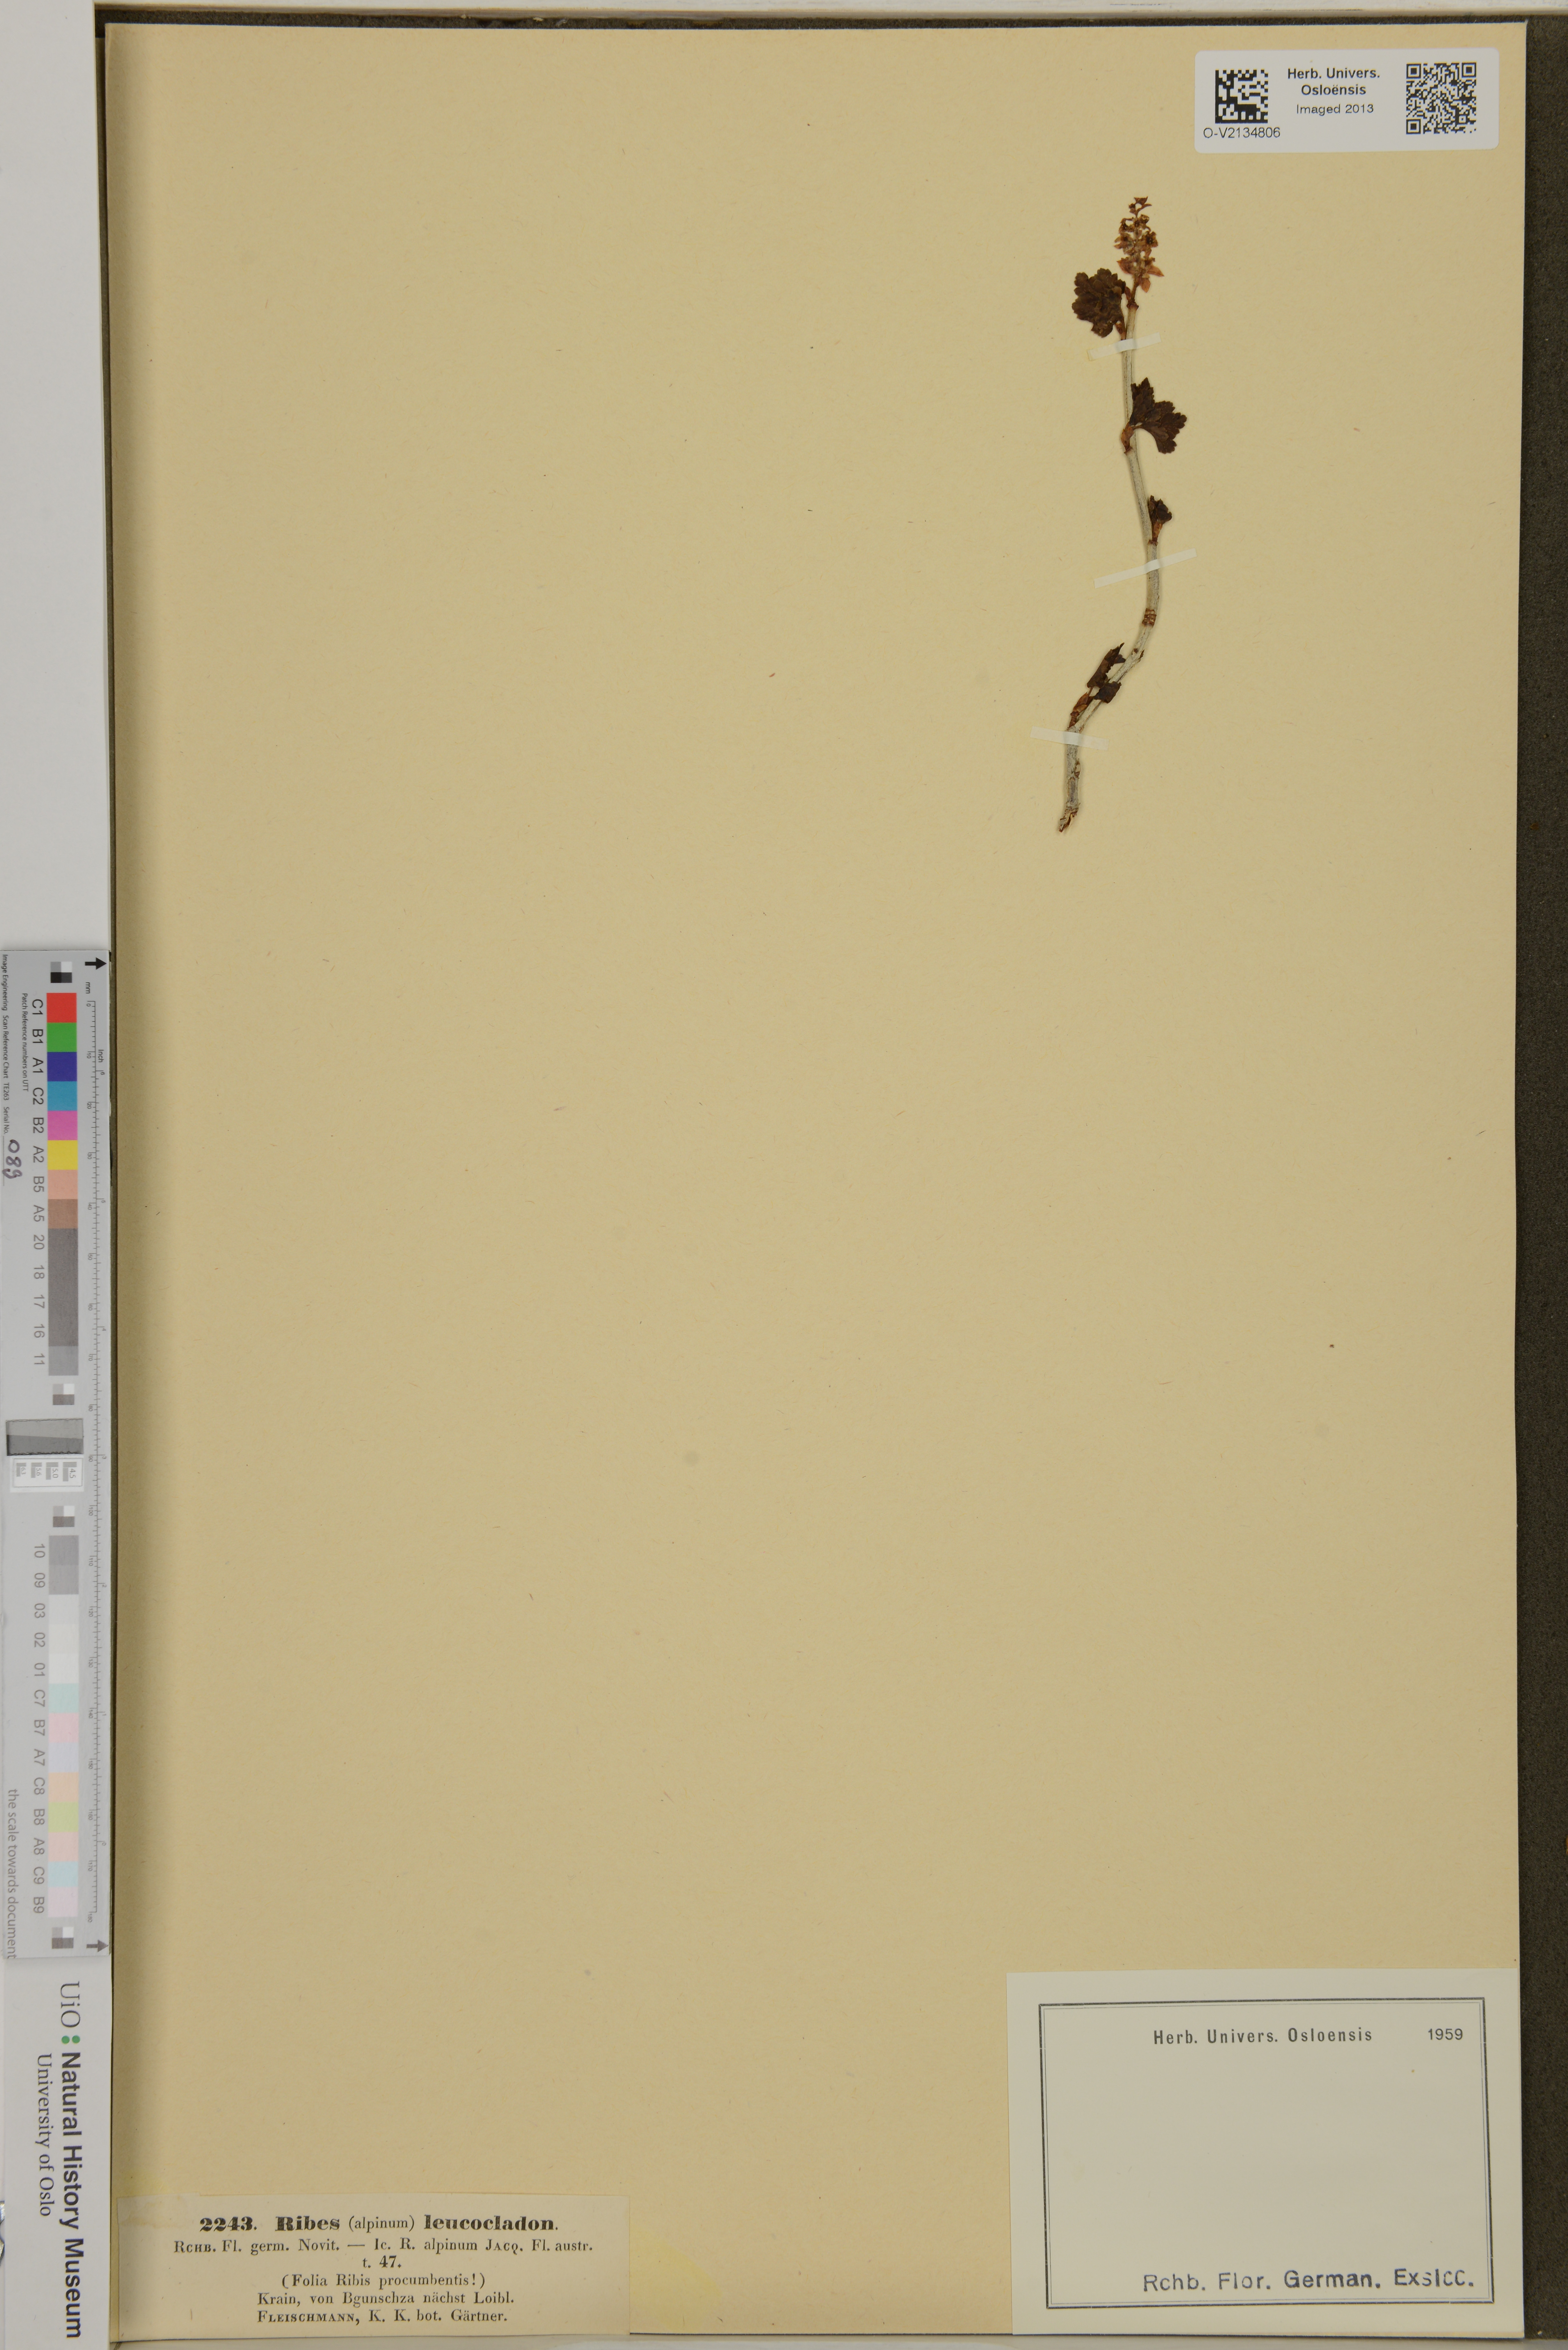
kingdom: Plantae
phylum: Tracheophyta
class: Magnoliopsida
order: Saxifragales
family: Grossulariaceae
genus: Ribes
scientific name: Ribes alpinum
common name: Alpine currant
